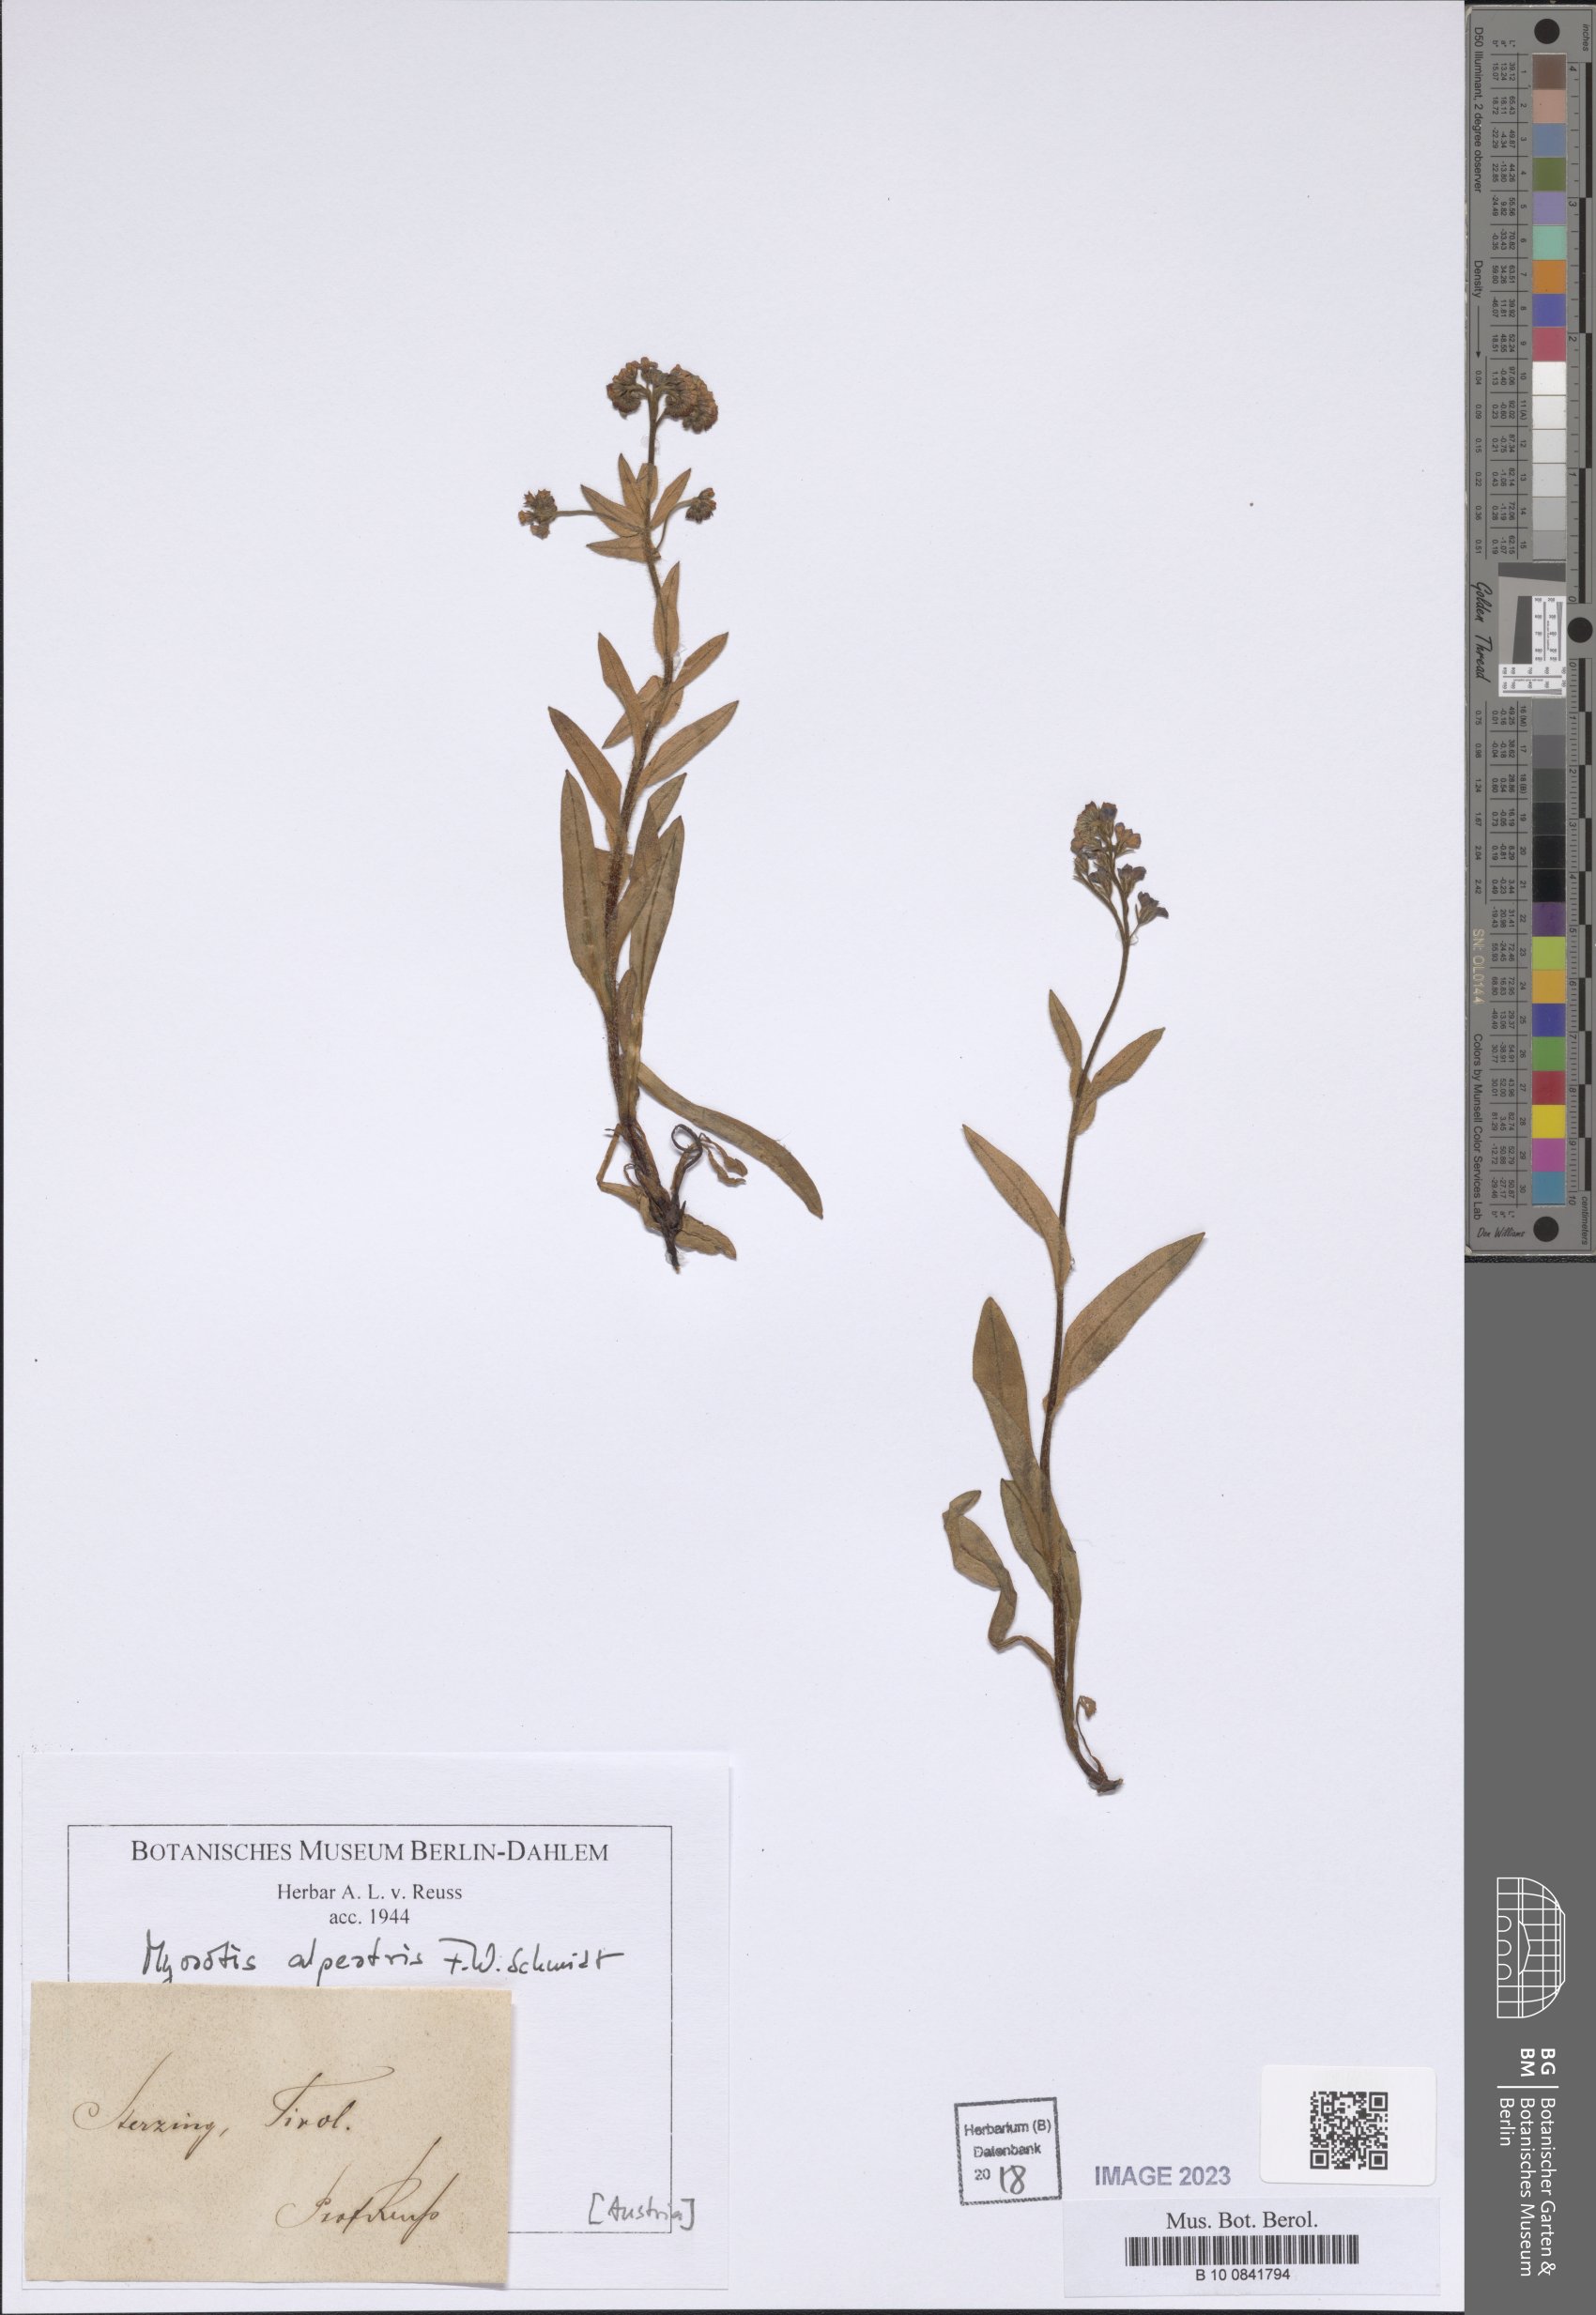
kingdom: Plantae
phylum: Tracheophyta
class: Magnoliopsida
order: Boraginales
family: Boraginaceae
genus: Myosotis
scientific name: Myosotis alpestris
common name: Alpine forget-me-not
